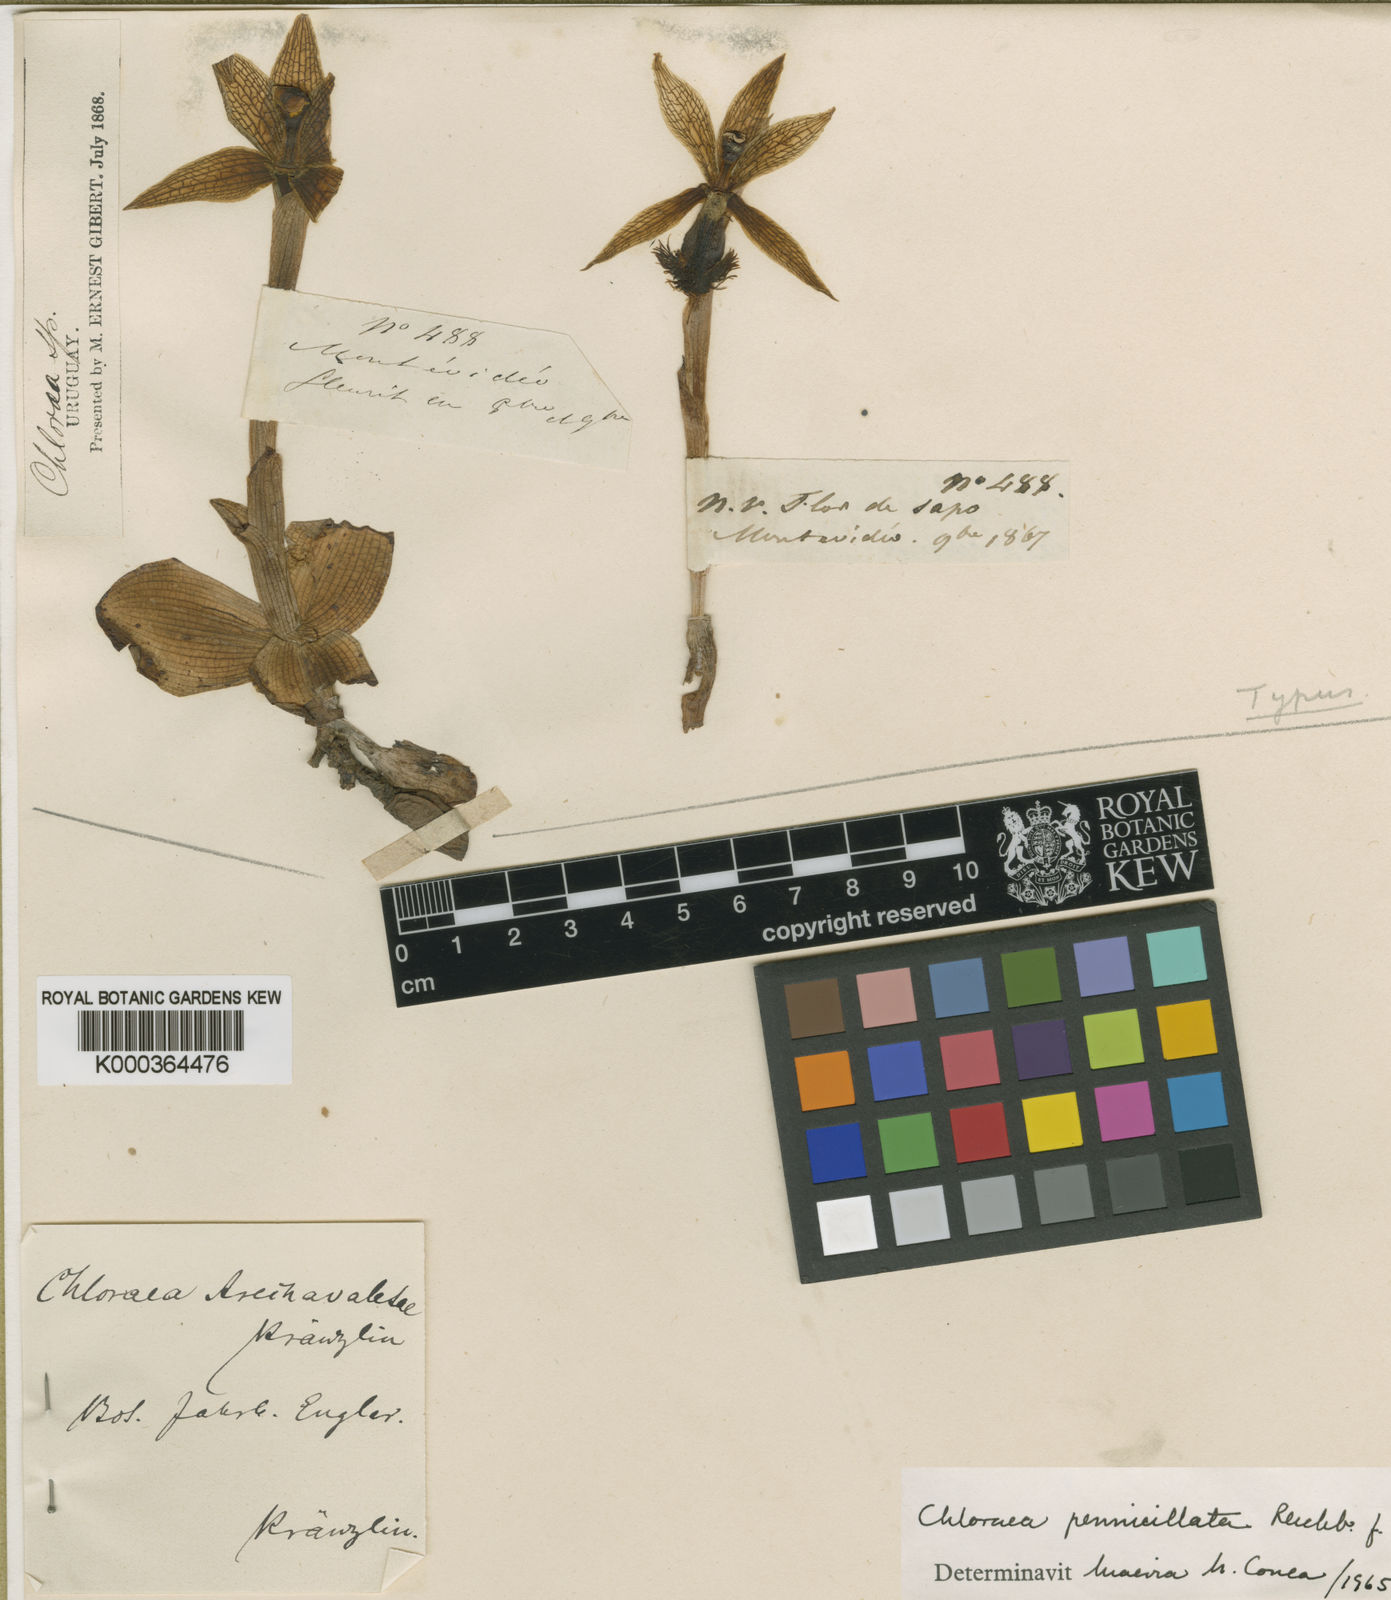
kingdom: Plantae
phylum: Tracheophyta
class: Liliopsida
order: Asparagales
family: Orchidaceae
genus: Bipinnula
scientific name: Bipinnula penicillata
